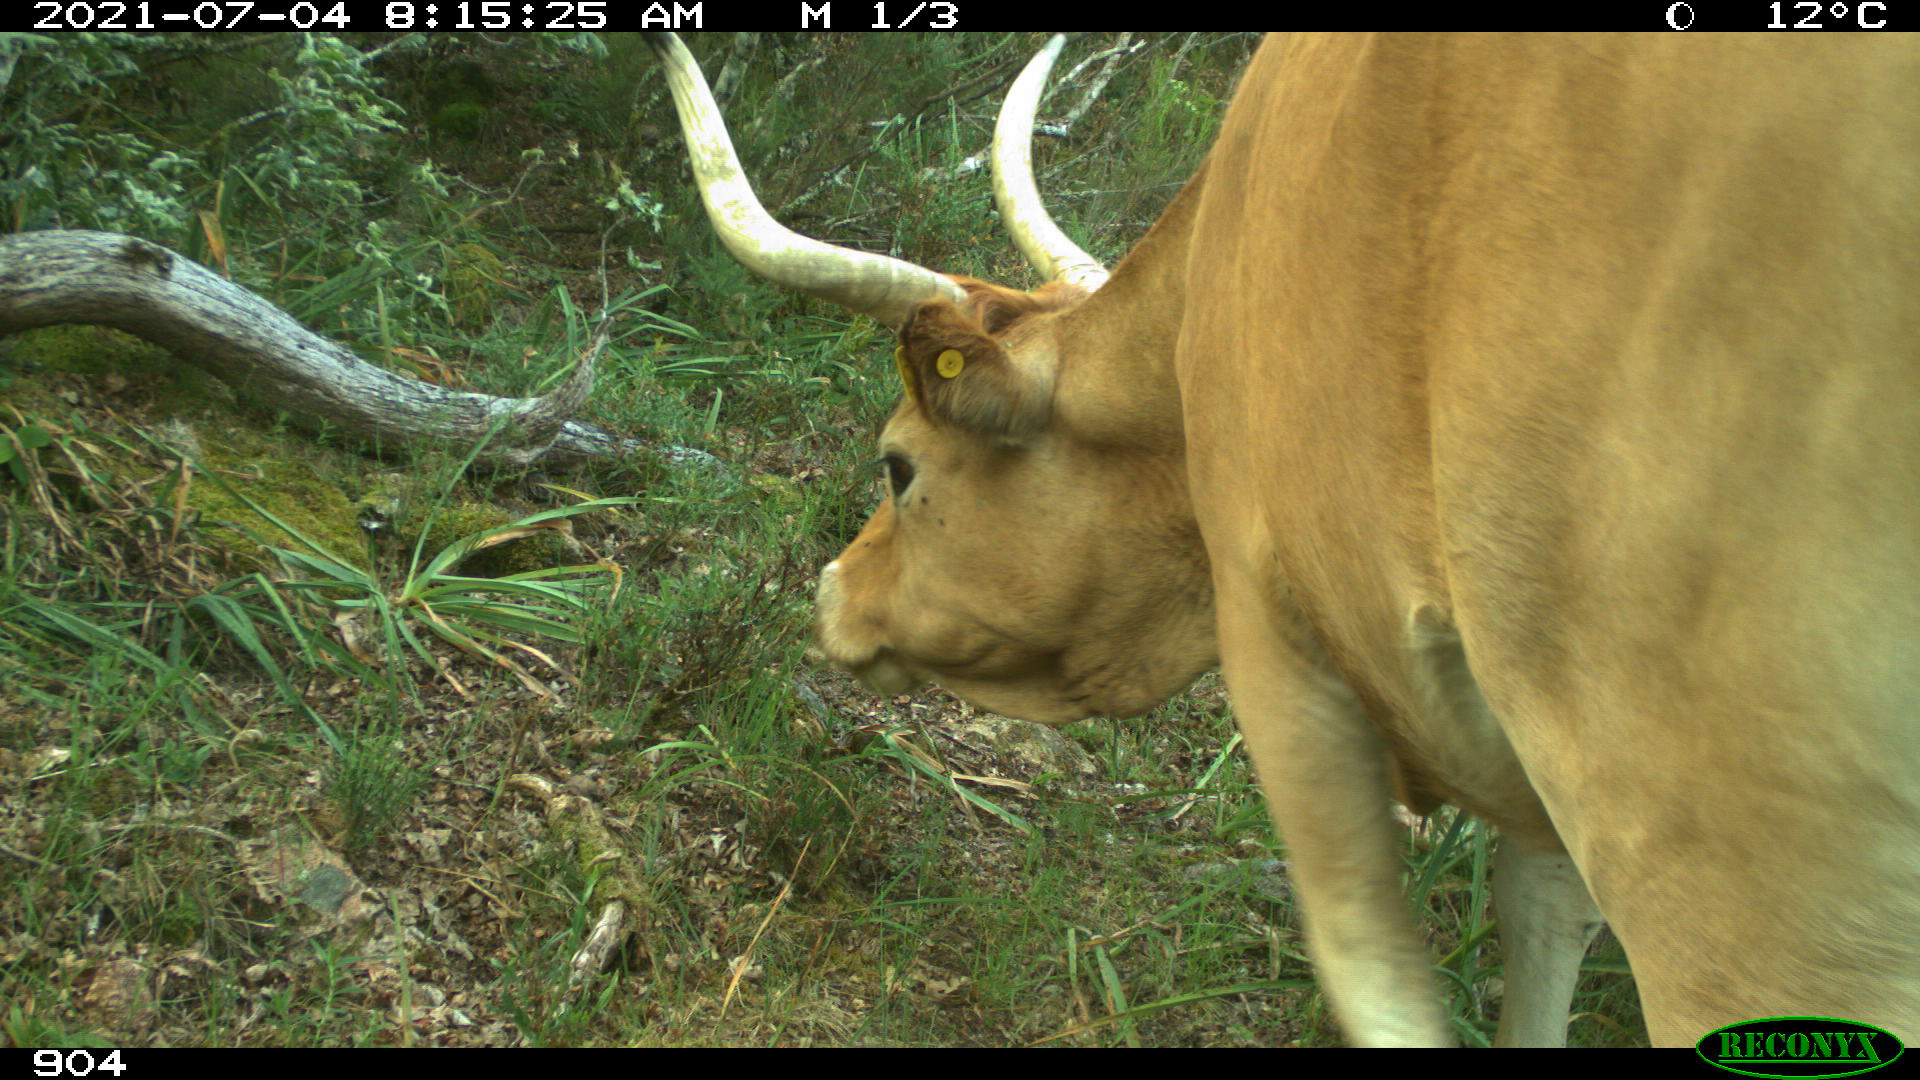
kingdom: Animalia
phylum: Chordata
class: Mammalia
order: Artiodactyla
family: Bovidae
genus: Bos
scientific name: Bos taurus
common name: Domesticated cattle
